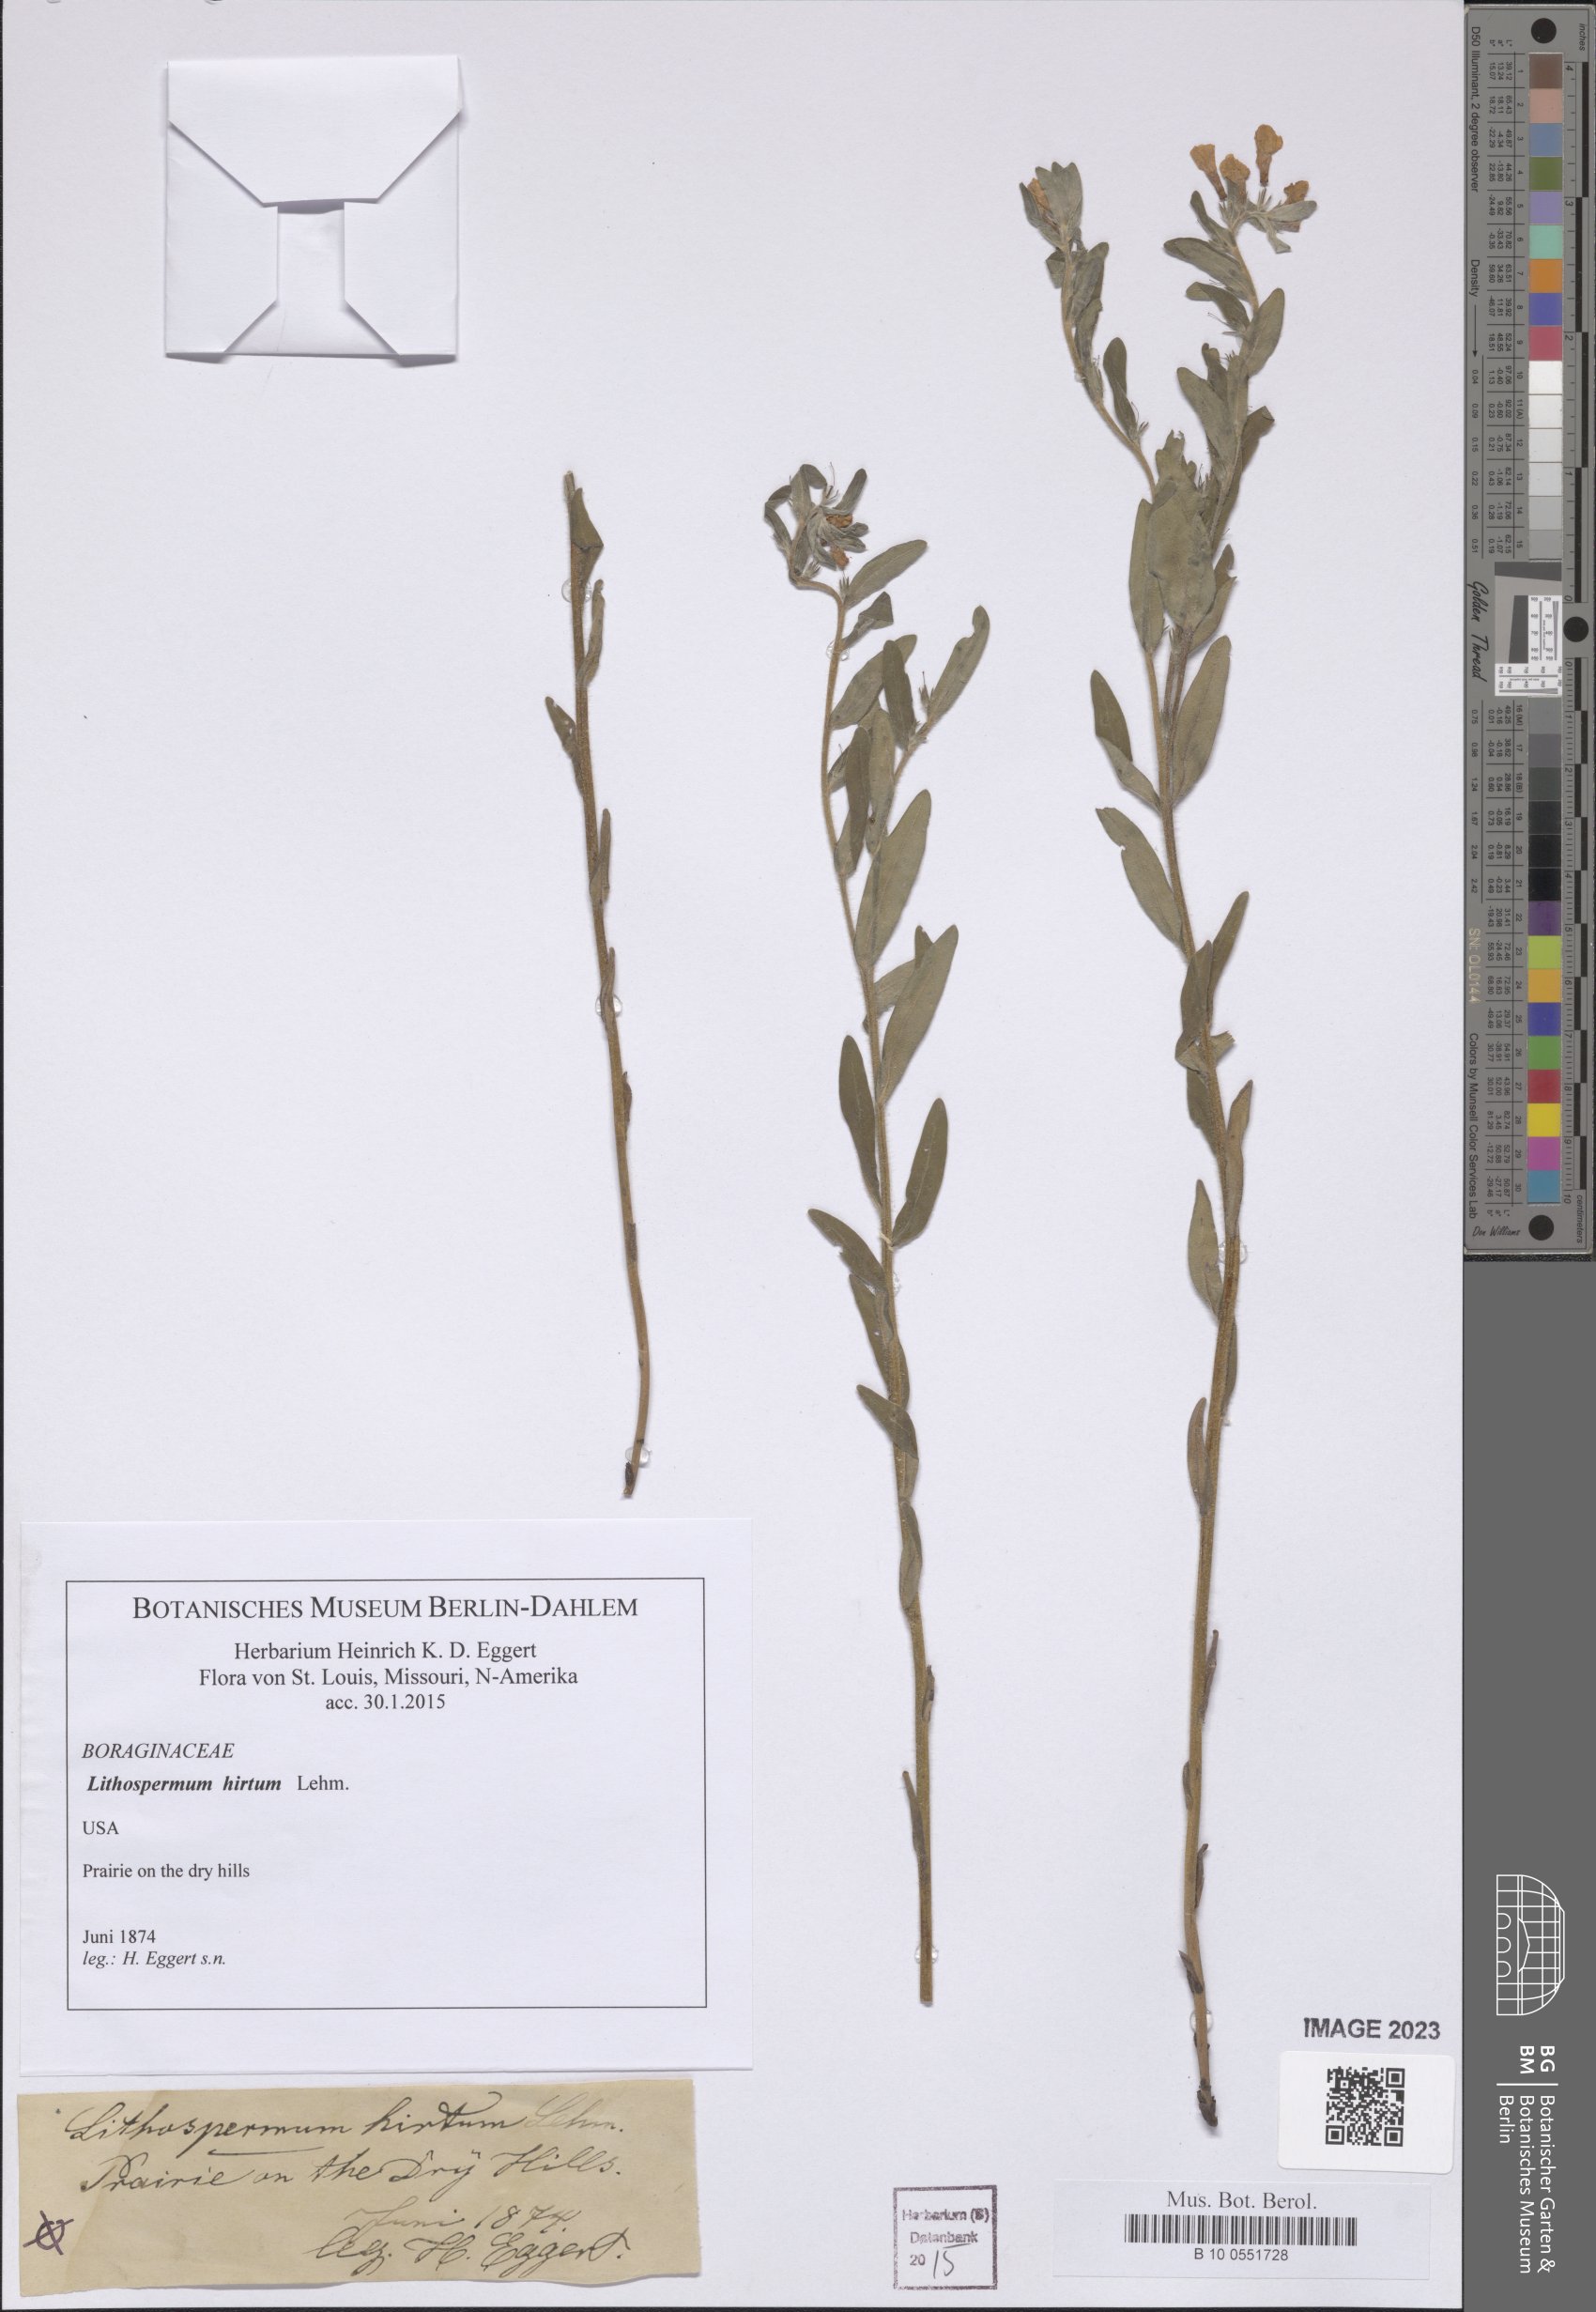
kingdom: Plantae
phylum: Tracheophyta
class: Magnoliopsida
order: Boraginales
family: Boraginaceae
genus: Lithospermum
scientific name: Lithospermum caroliniense
